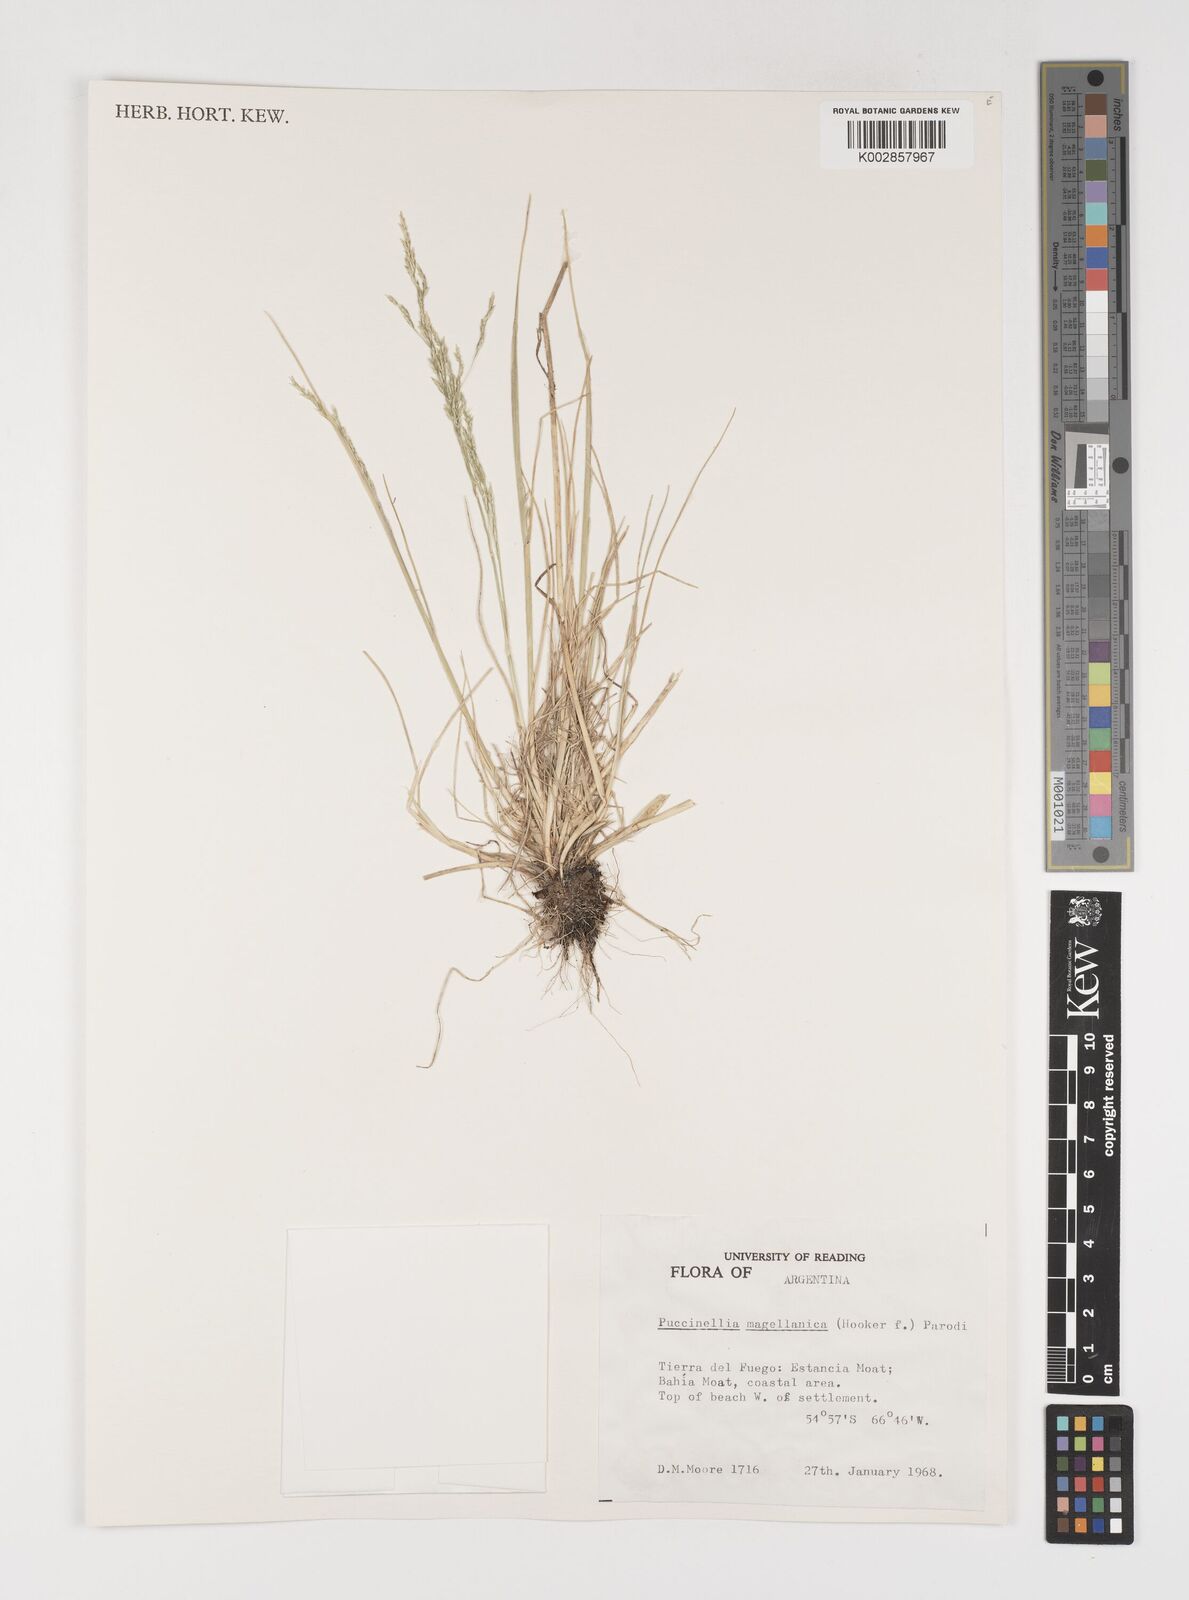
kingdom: Plantae
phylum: Tracheophyta
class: Liliopsida
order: Poales
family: Poaceae
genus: Puccinellia
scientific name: Puccinellia magellanica
